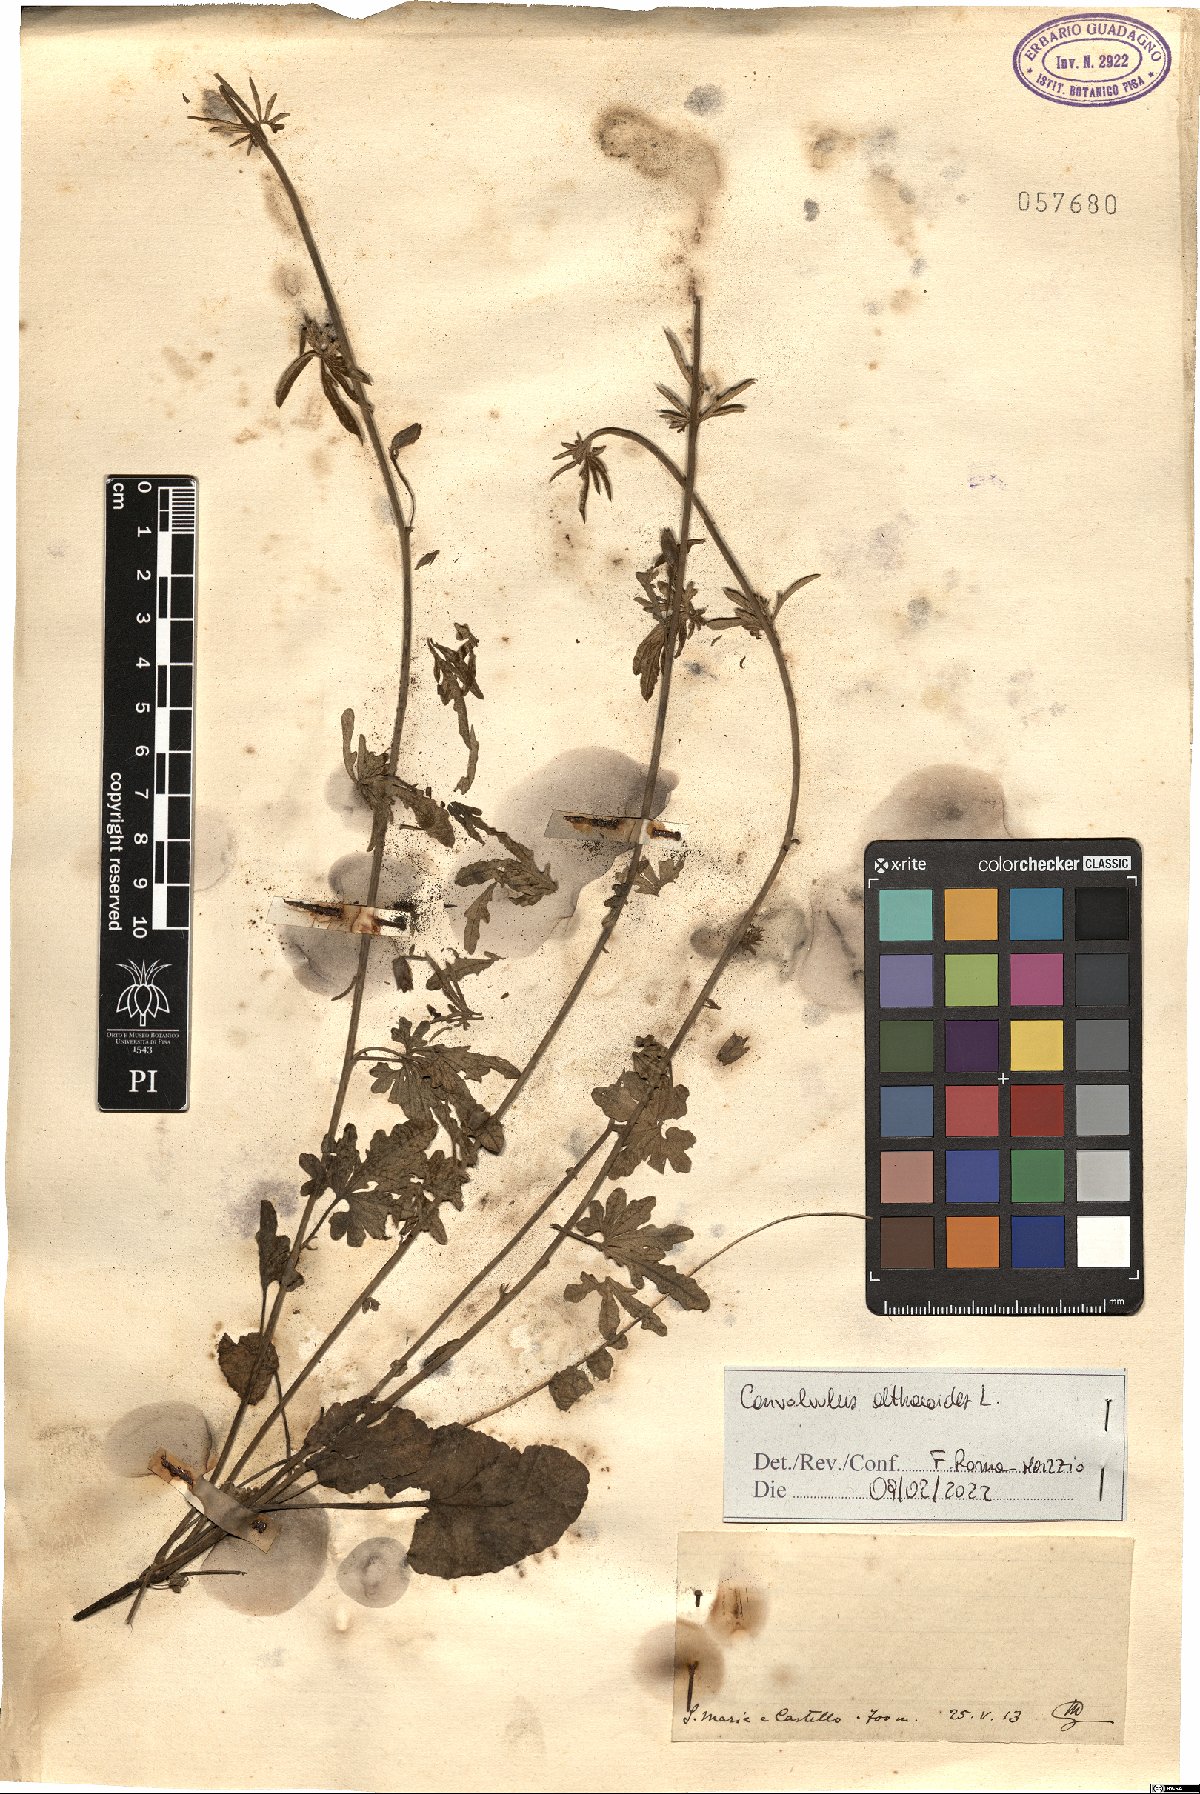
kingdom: Plantae
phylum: Tracheophyta
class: Magnoliopsida
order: Solanales
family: Convolvulaceae
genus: Convolvulus
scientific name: Convolvulus althaeoides
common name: Mallow bindweed
